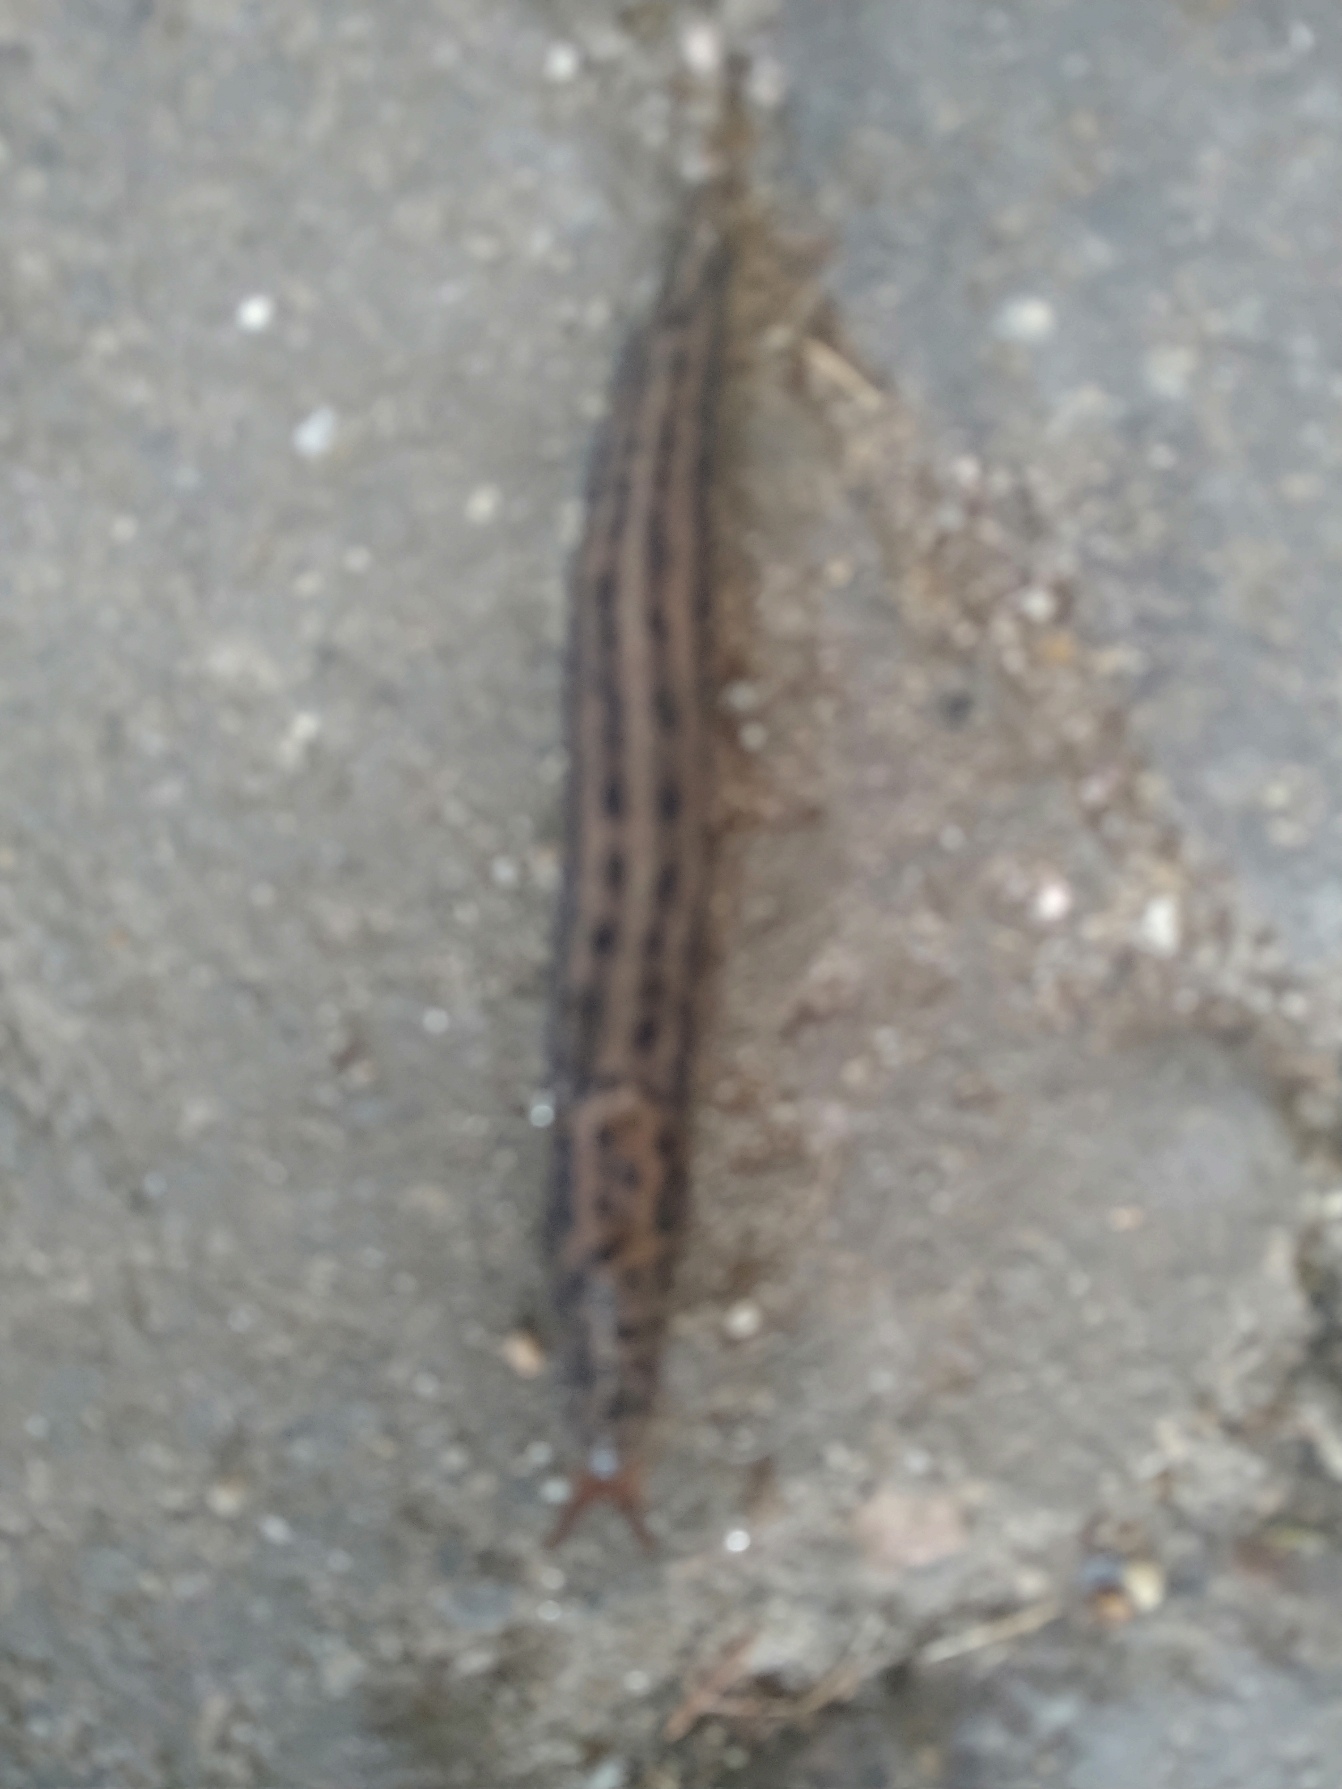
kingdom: Animalia
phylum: Mollusca
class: Gastropoda
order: Stylommatophora
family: Limacidae
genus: Limax
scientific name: Limax maximus
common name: Pantersnegl
